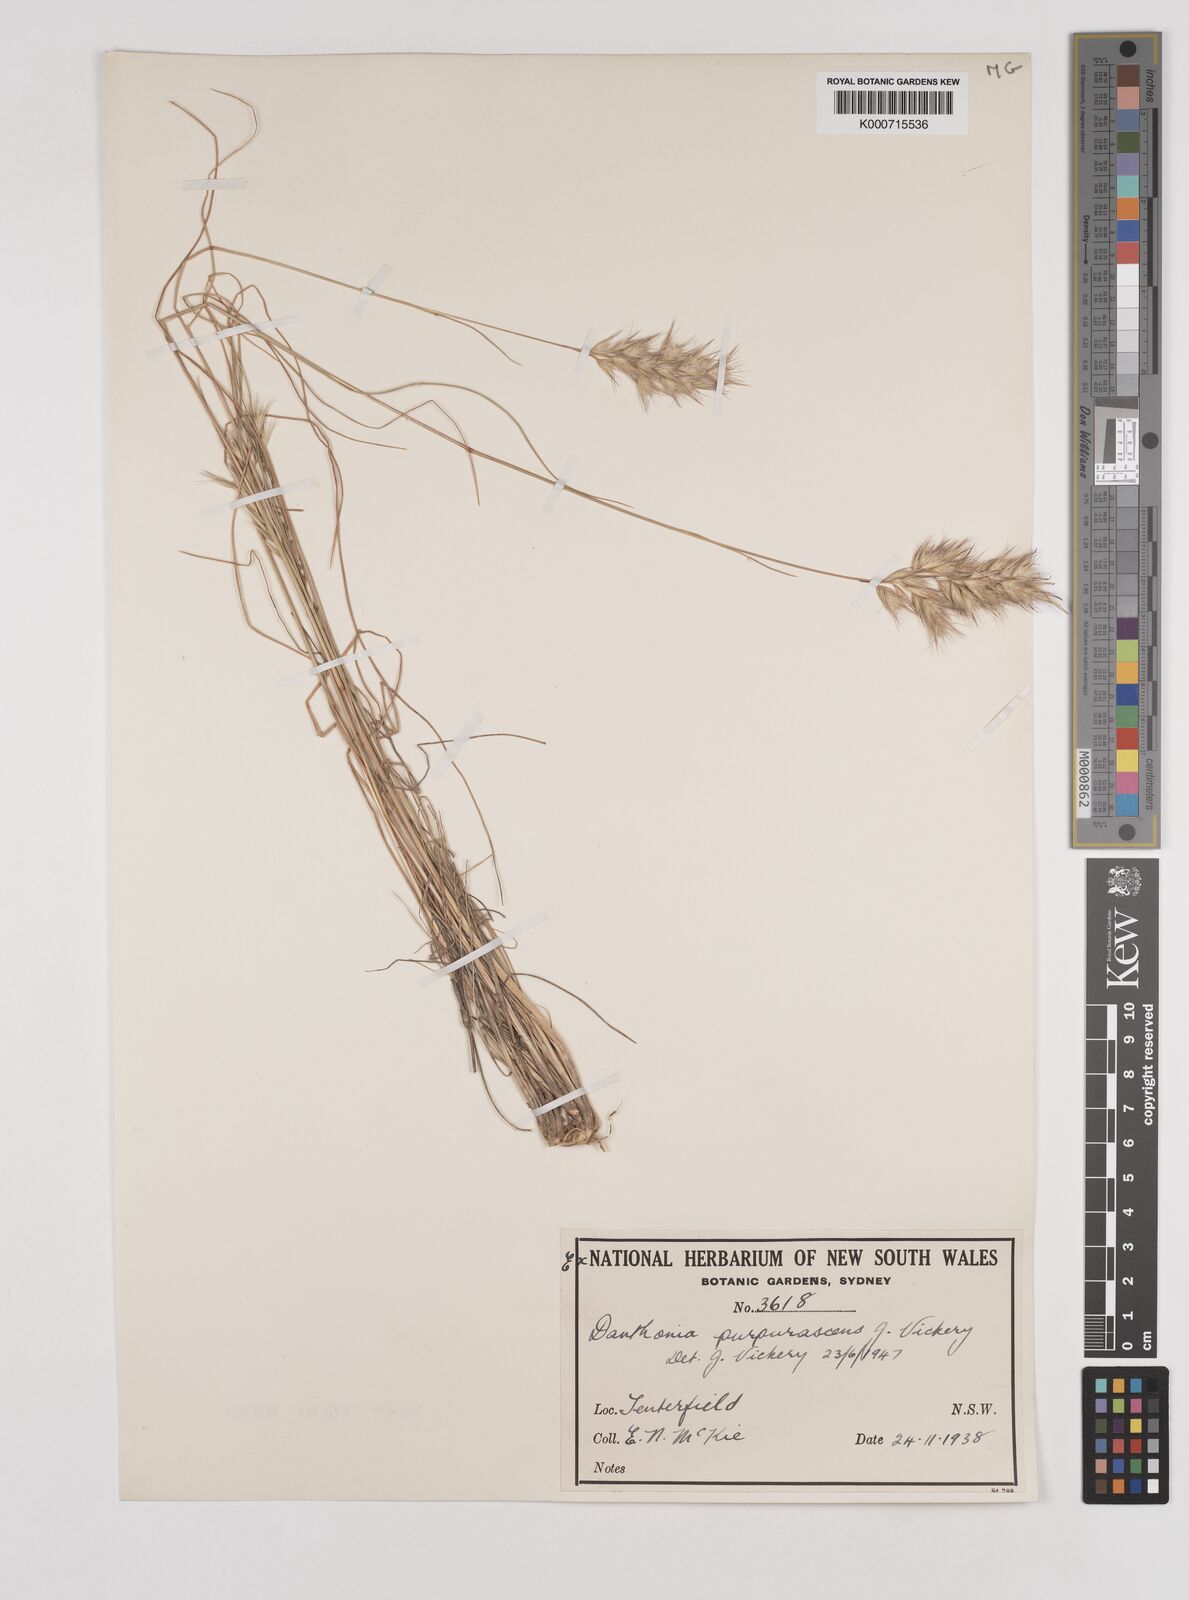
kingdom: Plantae
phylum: Tracheophyta
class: Liliopsida
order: Poales
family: Poaceae
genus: Rytidosperma
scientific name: Rytidosperma tenuius
